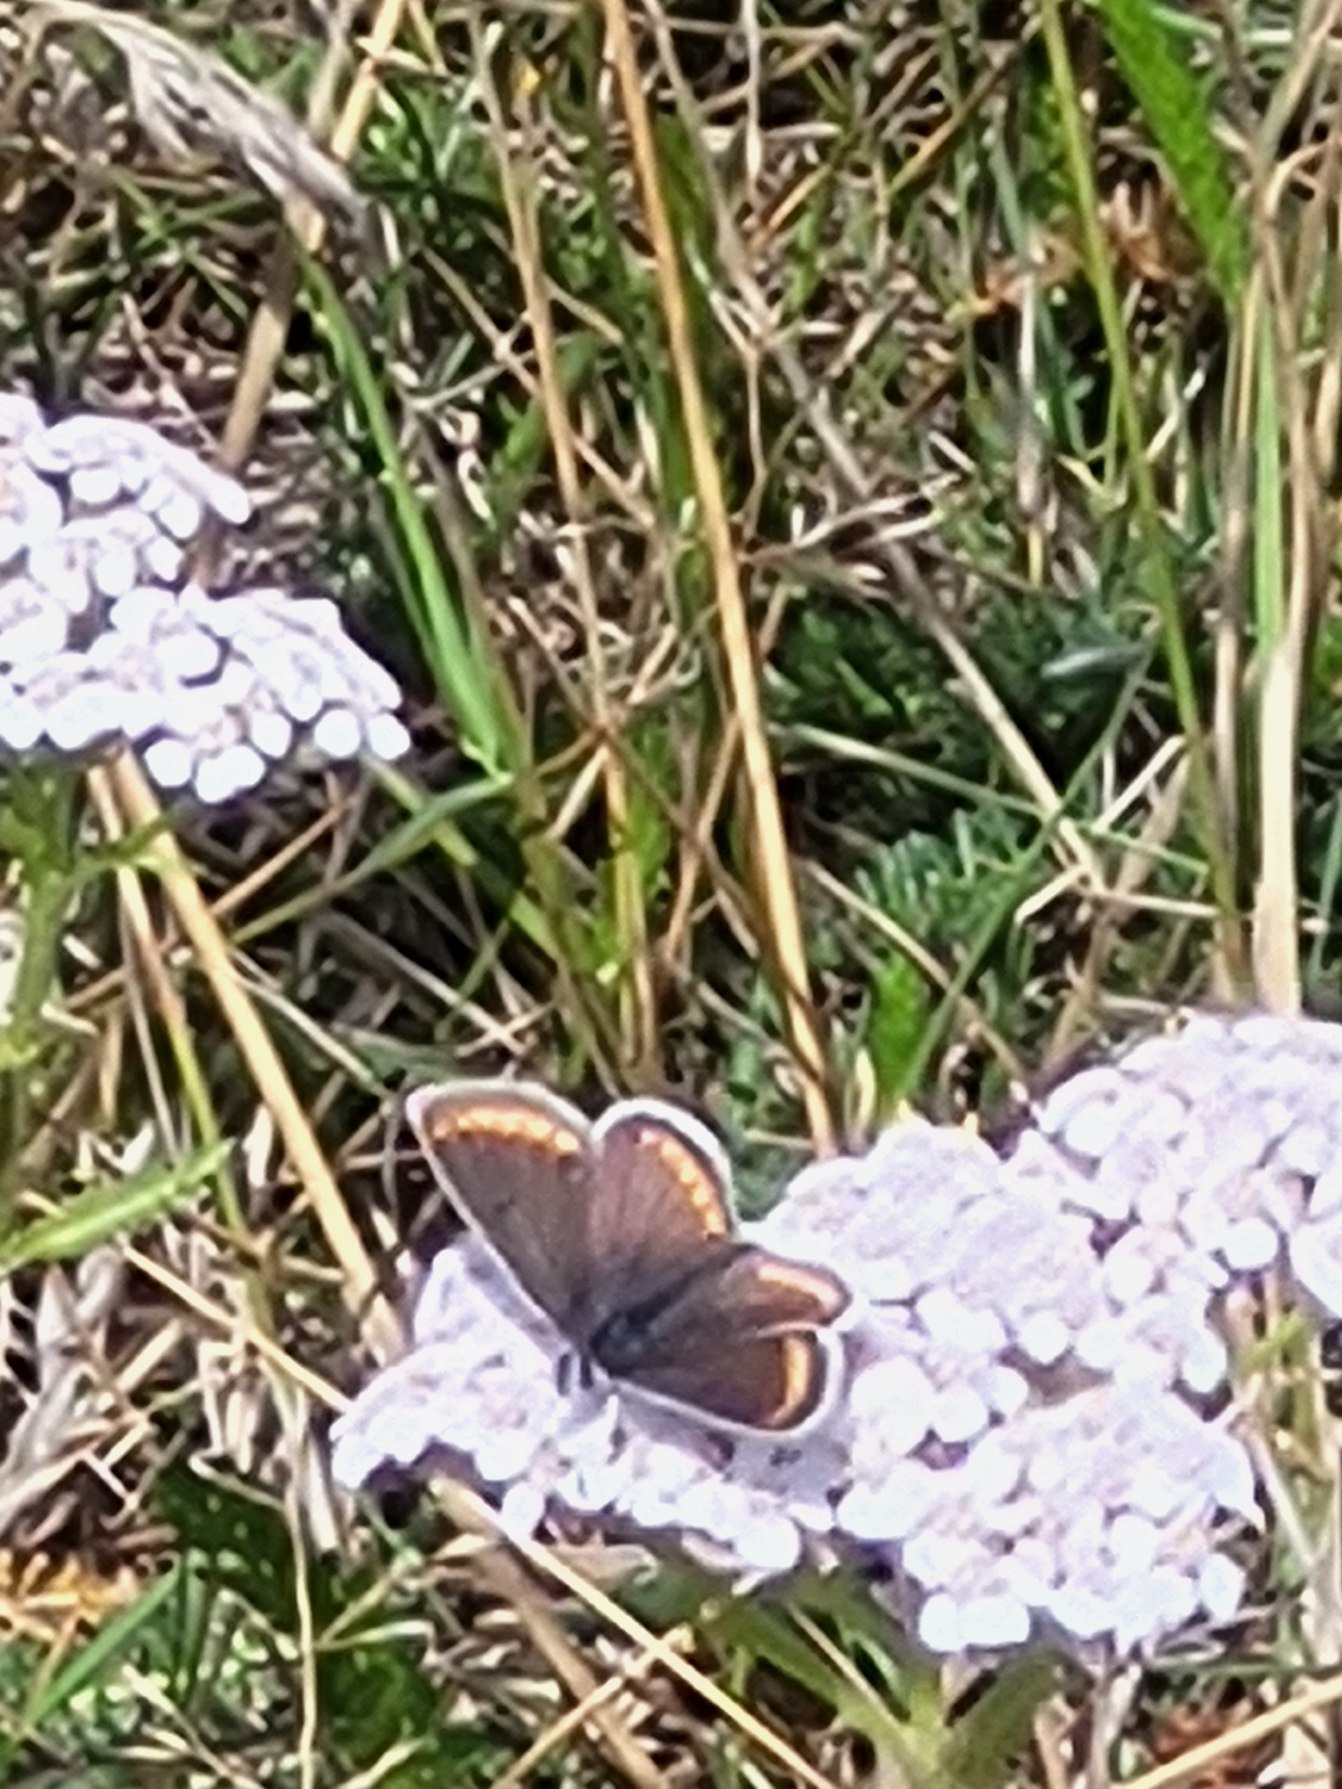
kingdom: Animalia
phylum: Arthropoda
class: Insecta
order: Lepidoptera
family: Lycaenidae
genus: Aricia
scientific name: Aricia agestis
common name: Rødplettet blåfugl
